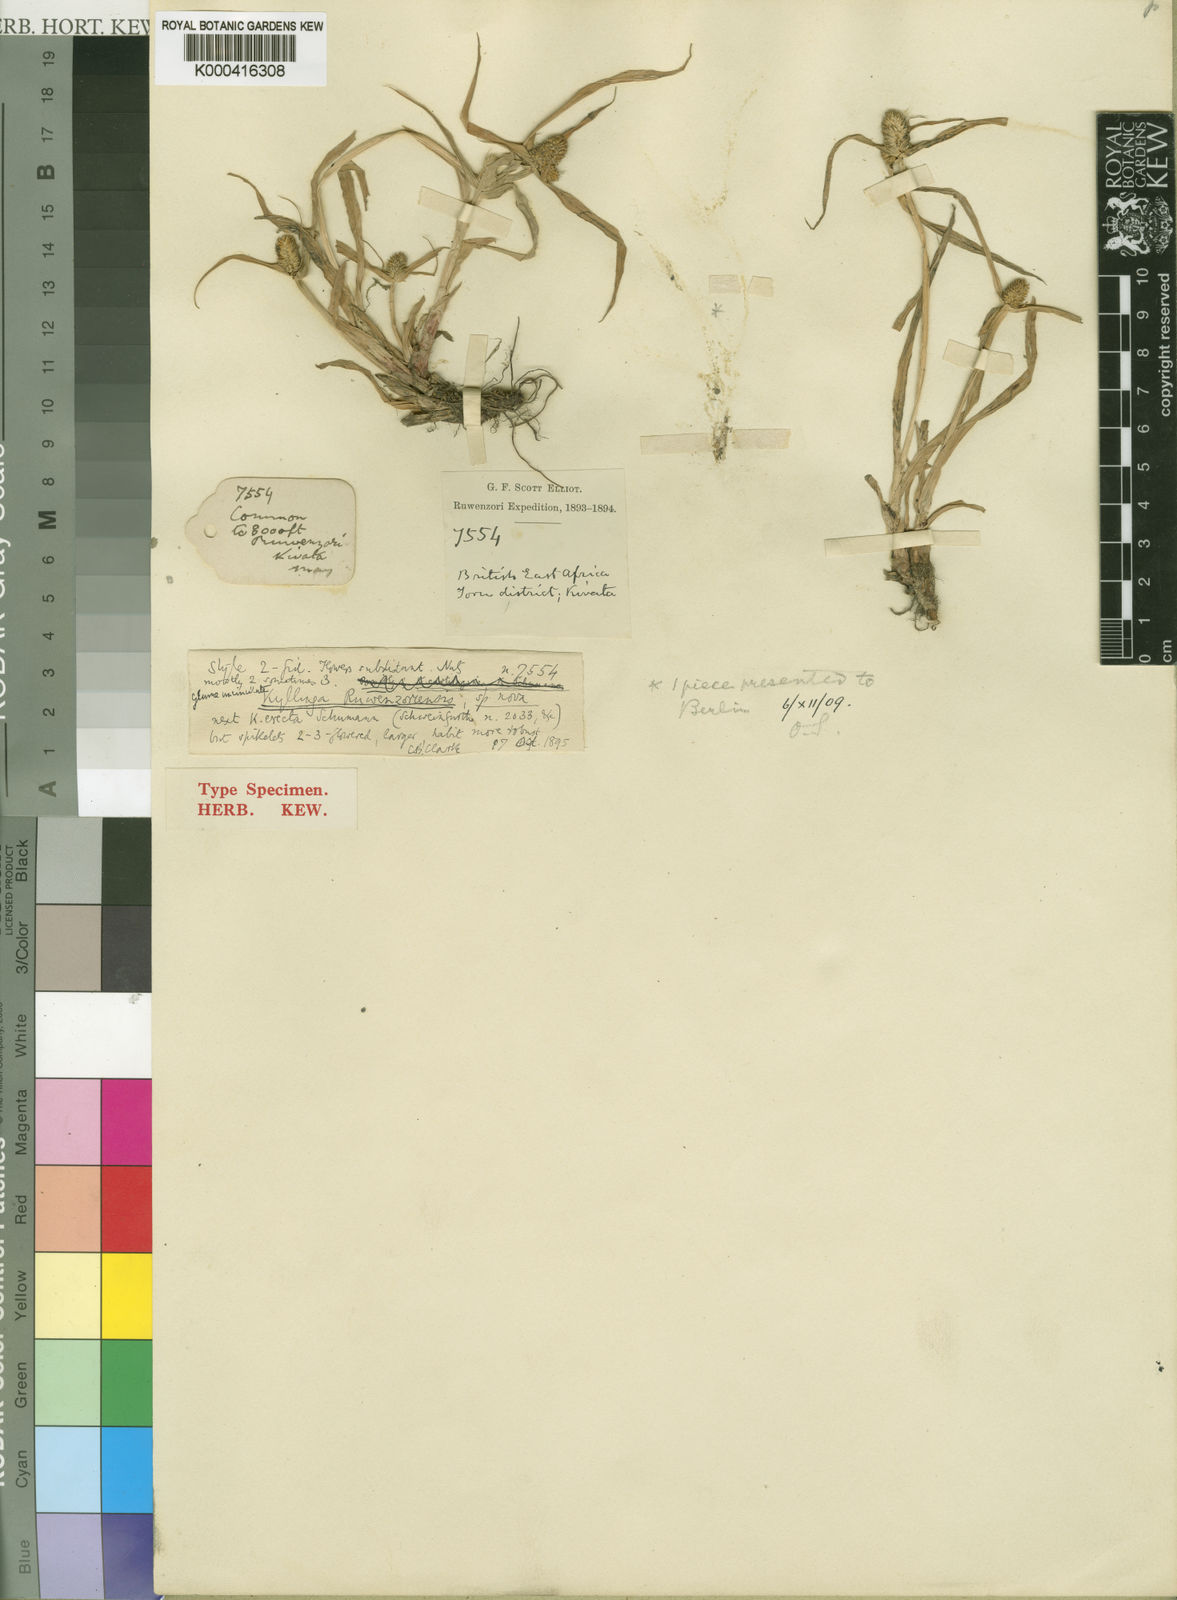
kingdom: Plantae
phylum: Tracheophyta
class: Liliopsida
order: Poales
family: Cyperaceae
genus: Cyperus
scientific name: Cyperus nyikanus
